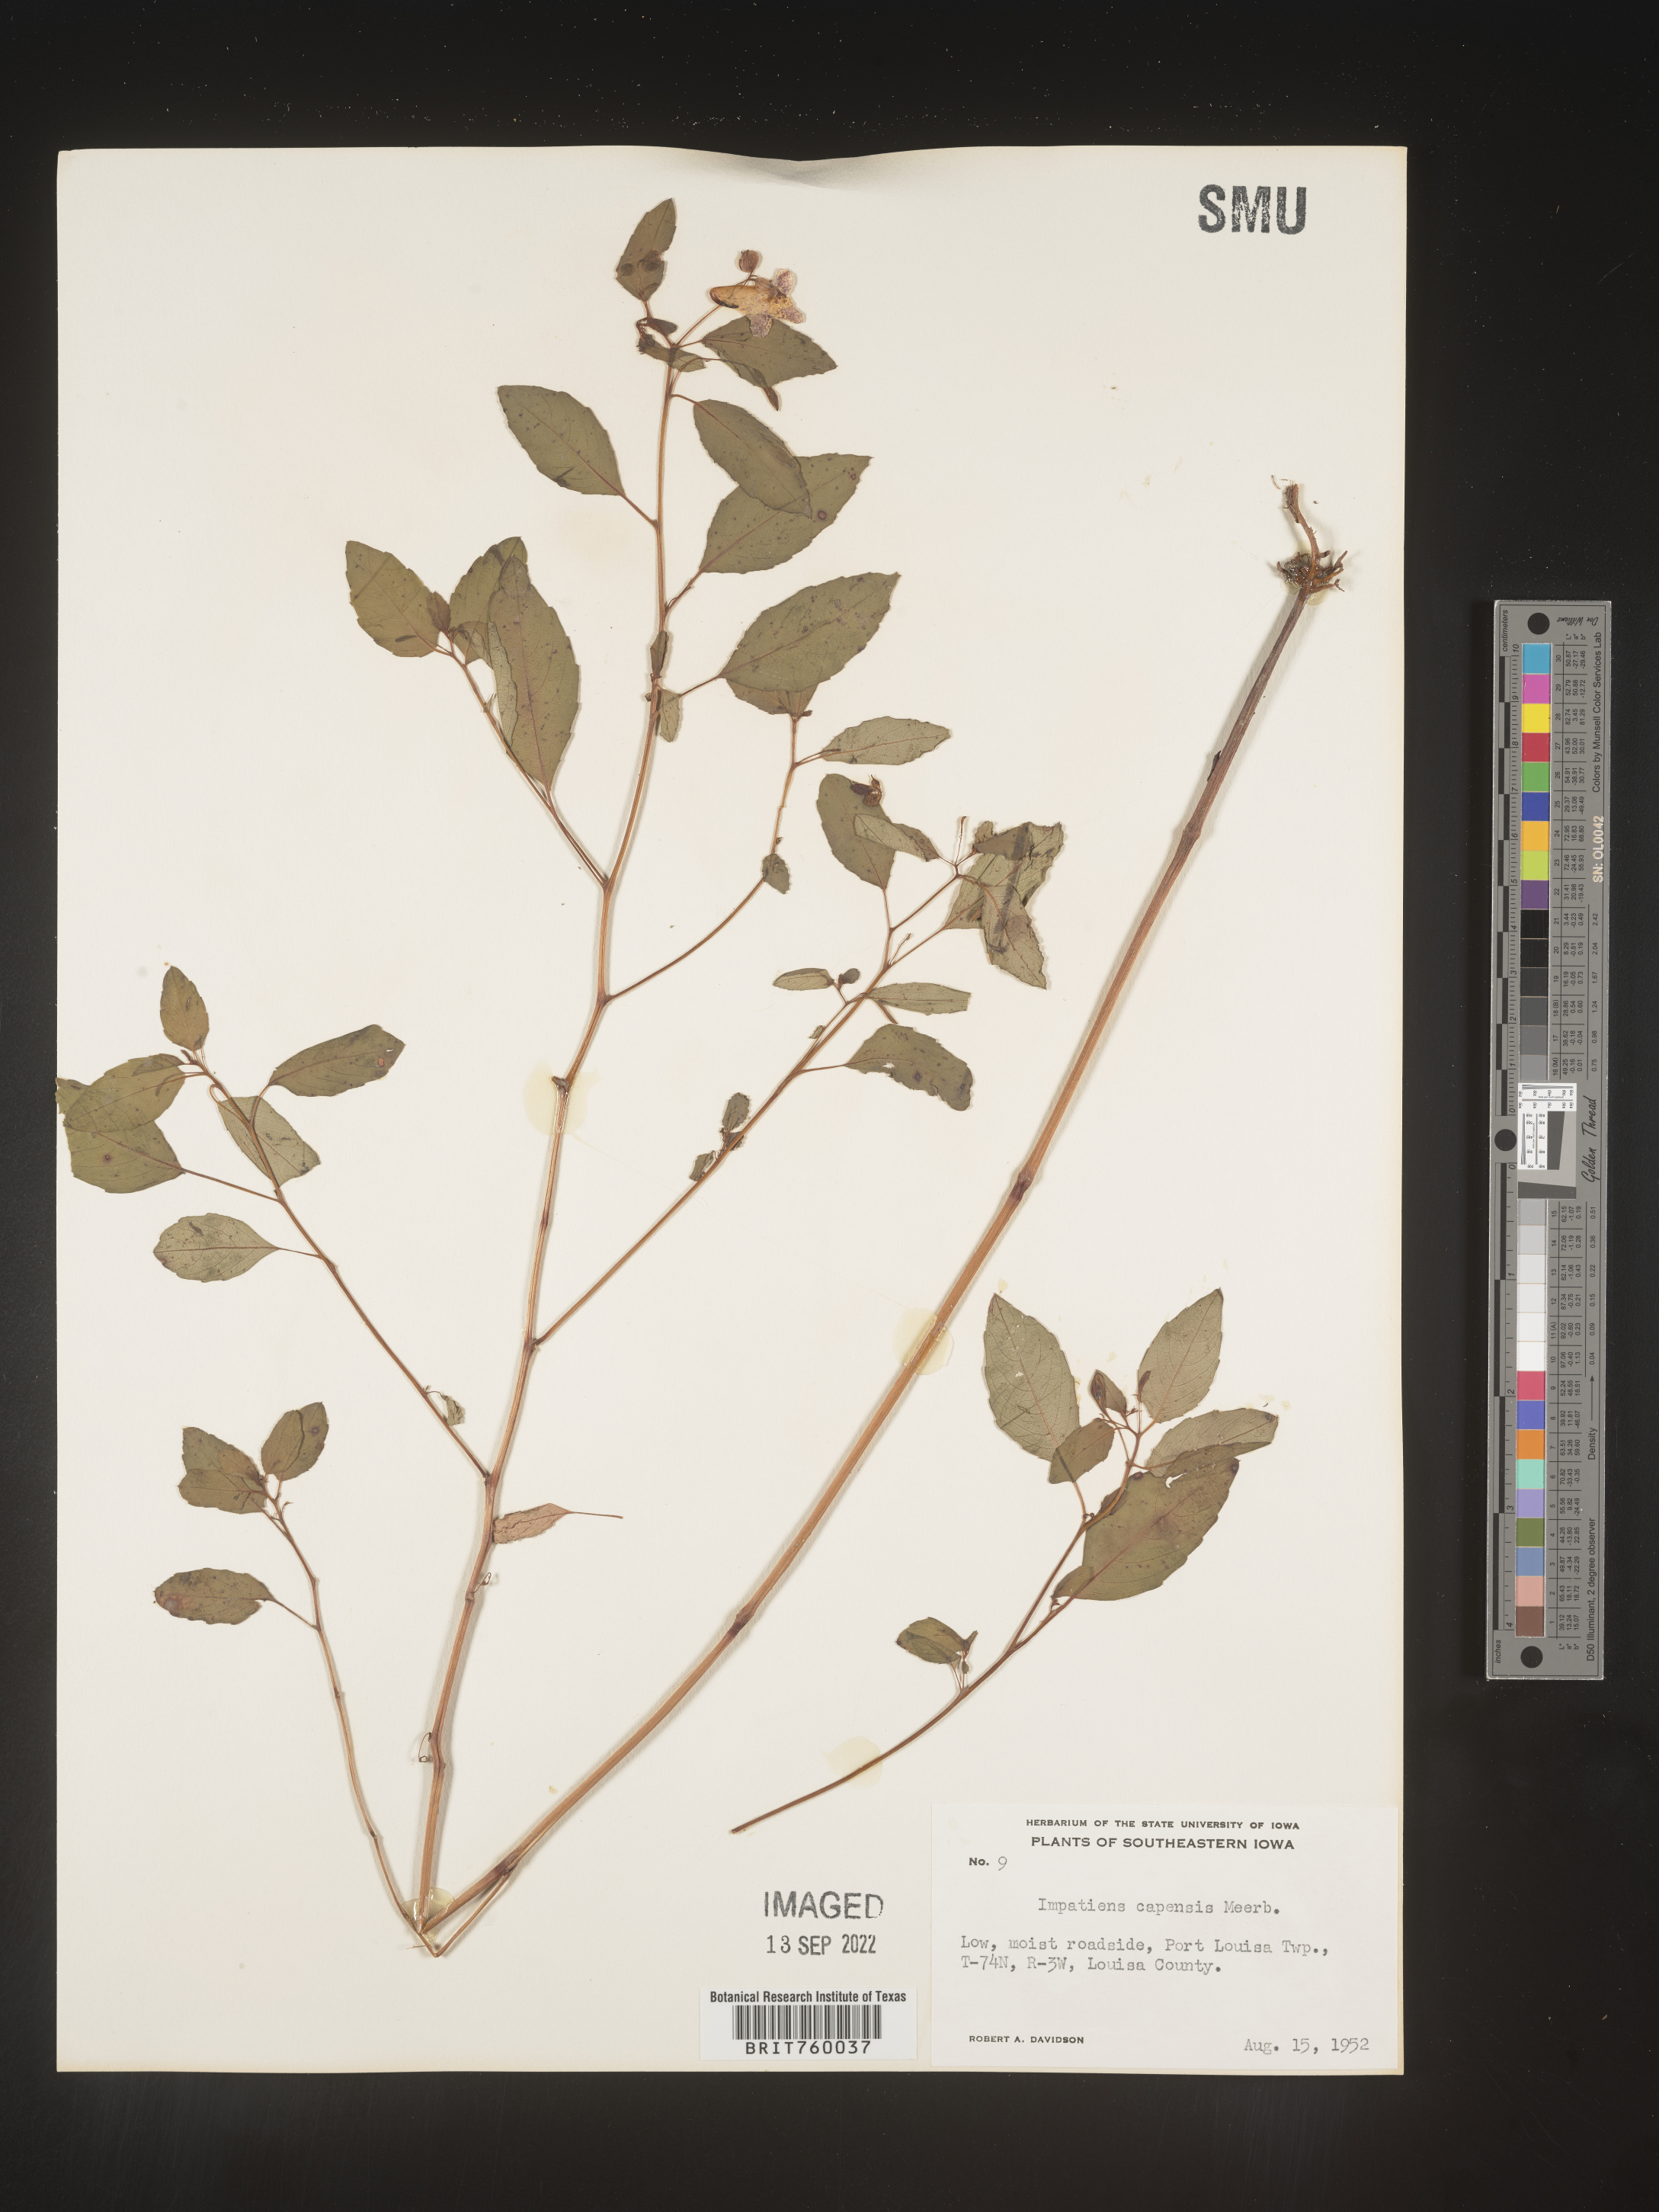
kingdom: Plantae
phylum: Tracheophyta
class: Magnoliopsida
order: Ericales
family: Balsaminaceae
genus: Impatiens
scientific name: Impatiens capensis
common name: Orange balsam
